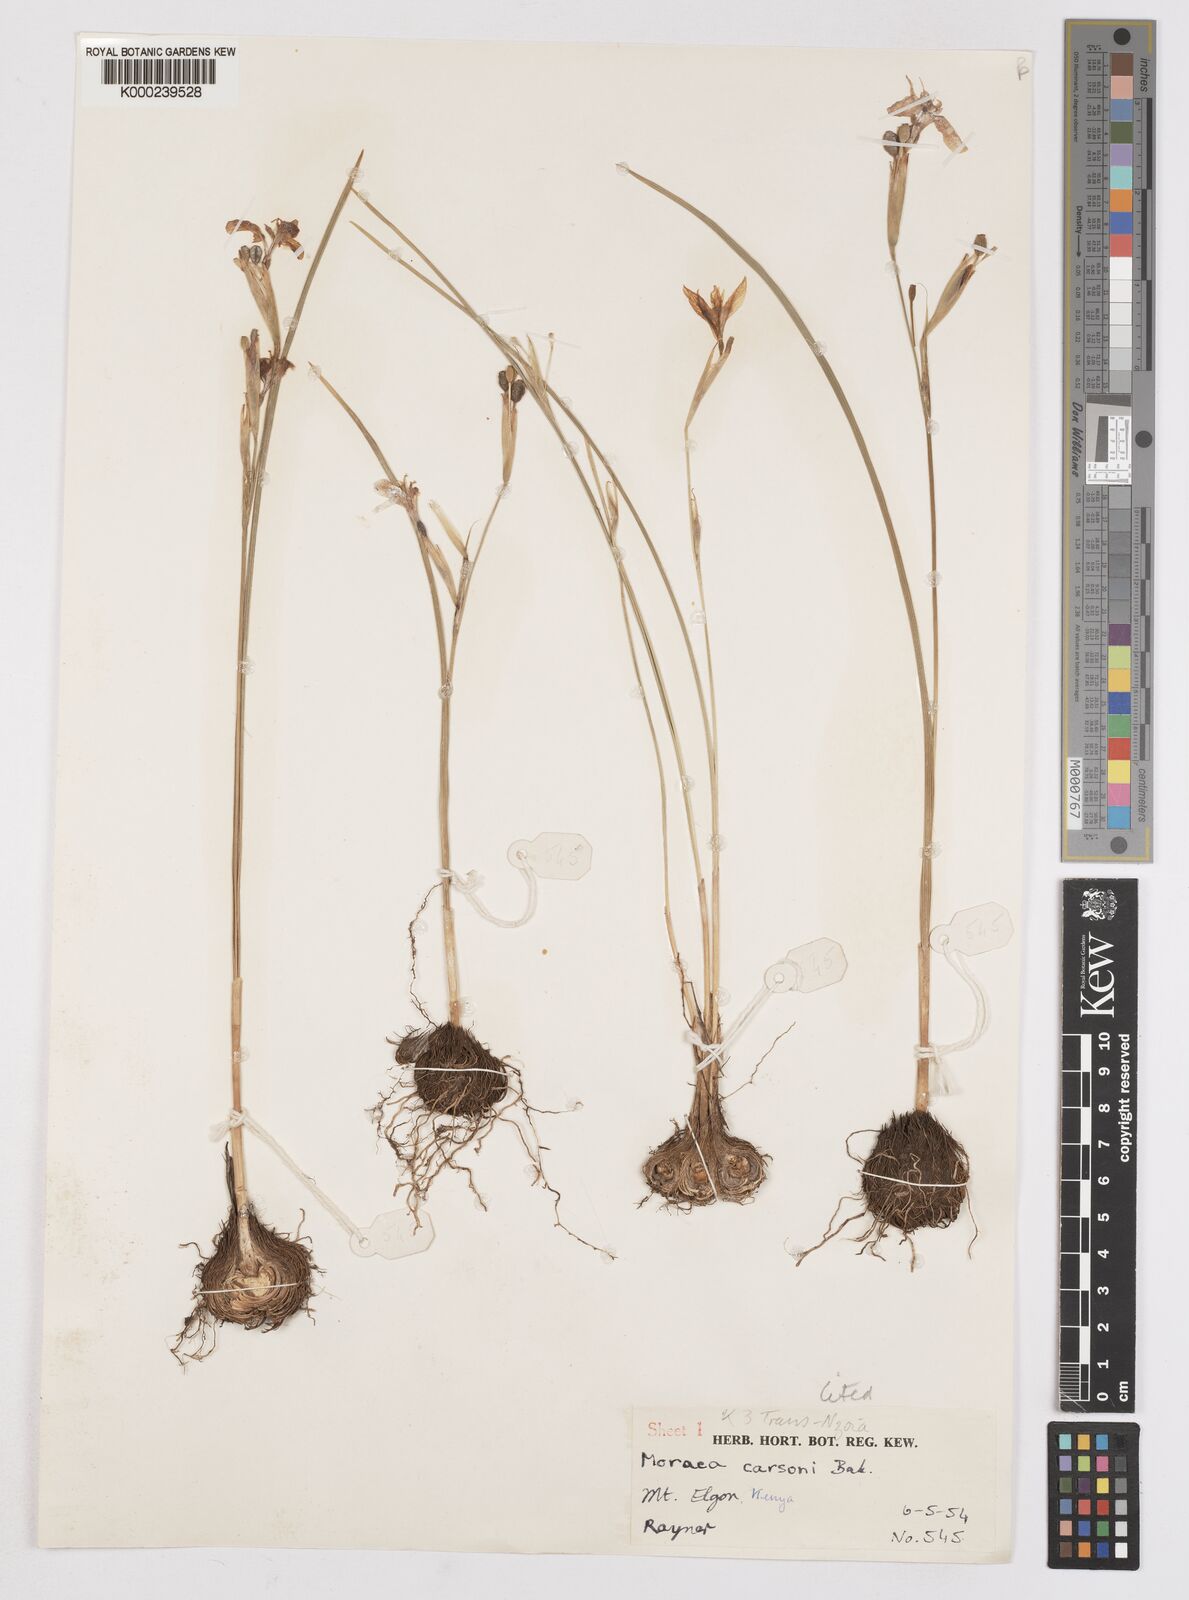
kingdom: Plantae
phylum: Tracheophyta
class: Liliopsida
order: Asparagales
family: Iridaceae
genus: Moraea
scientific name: Moraea
